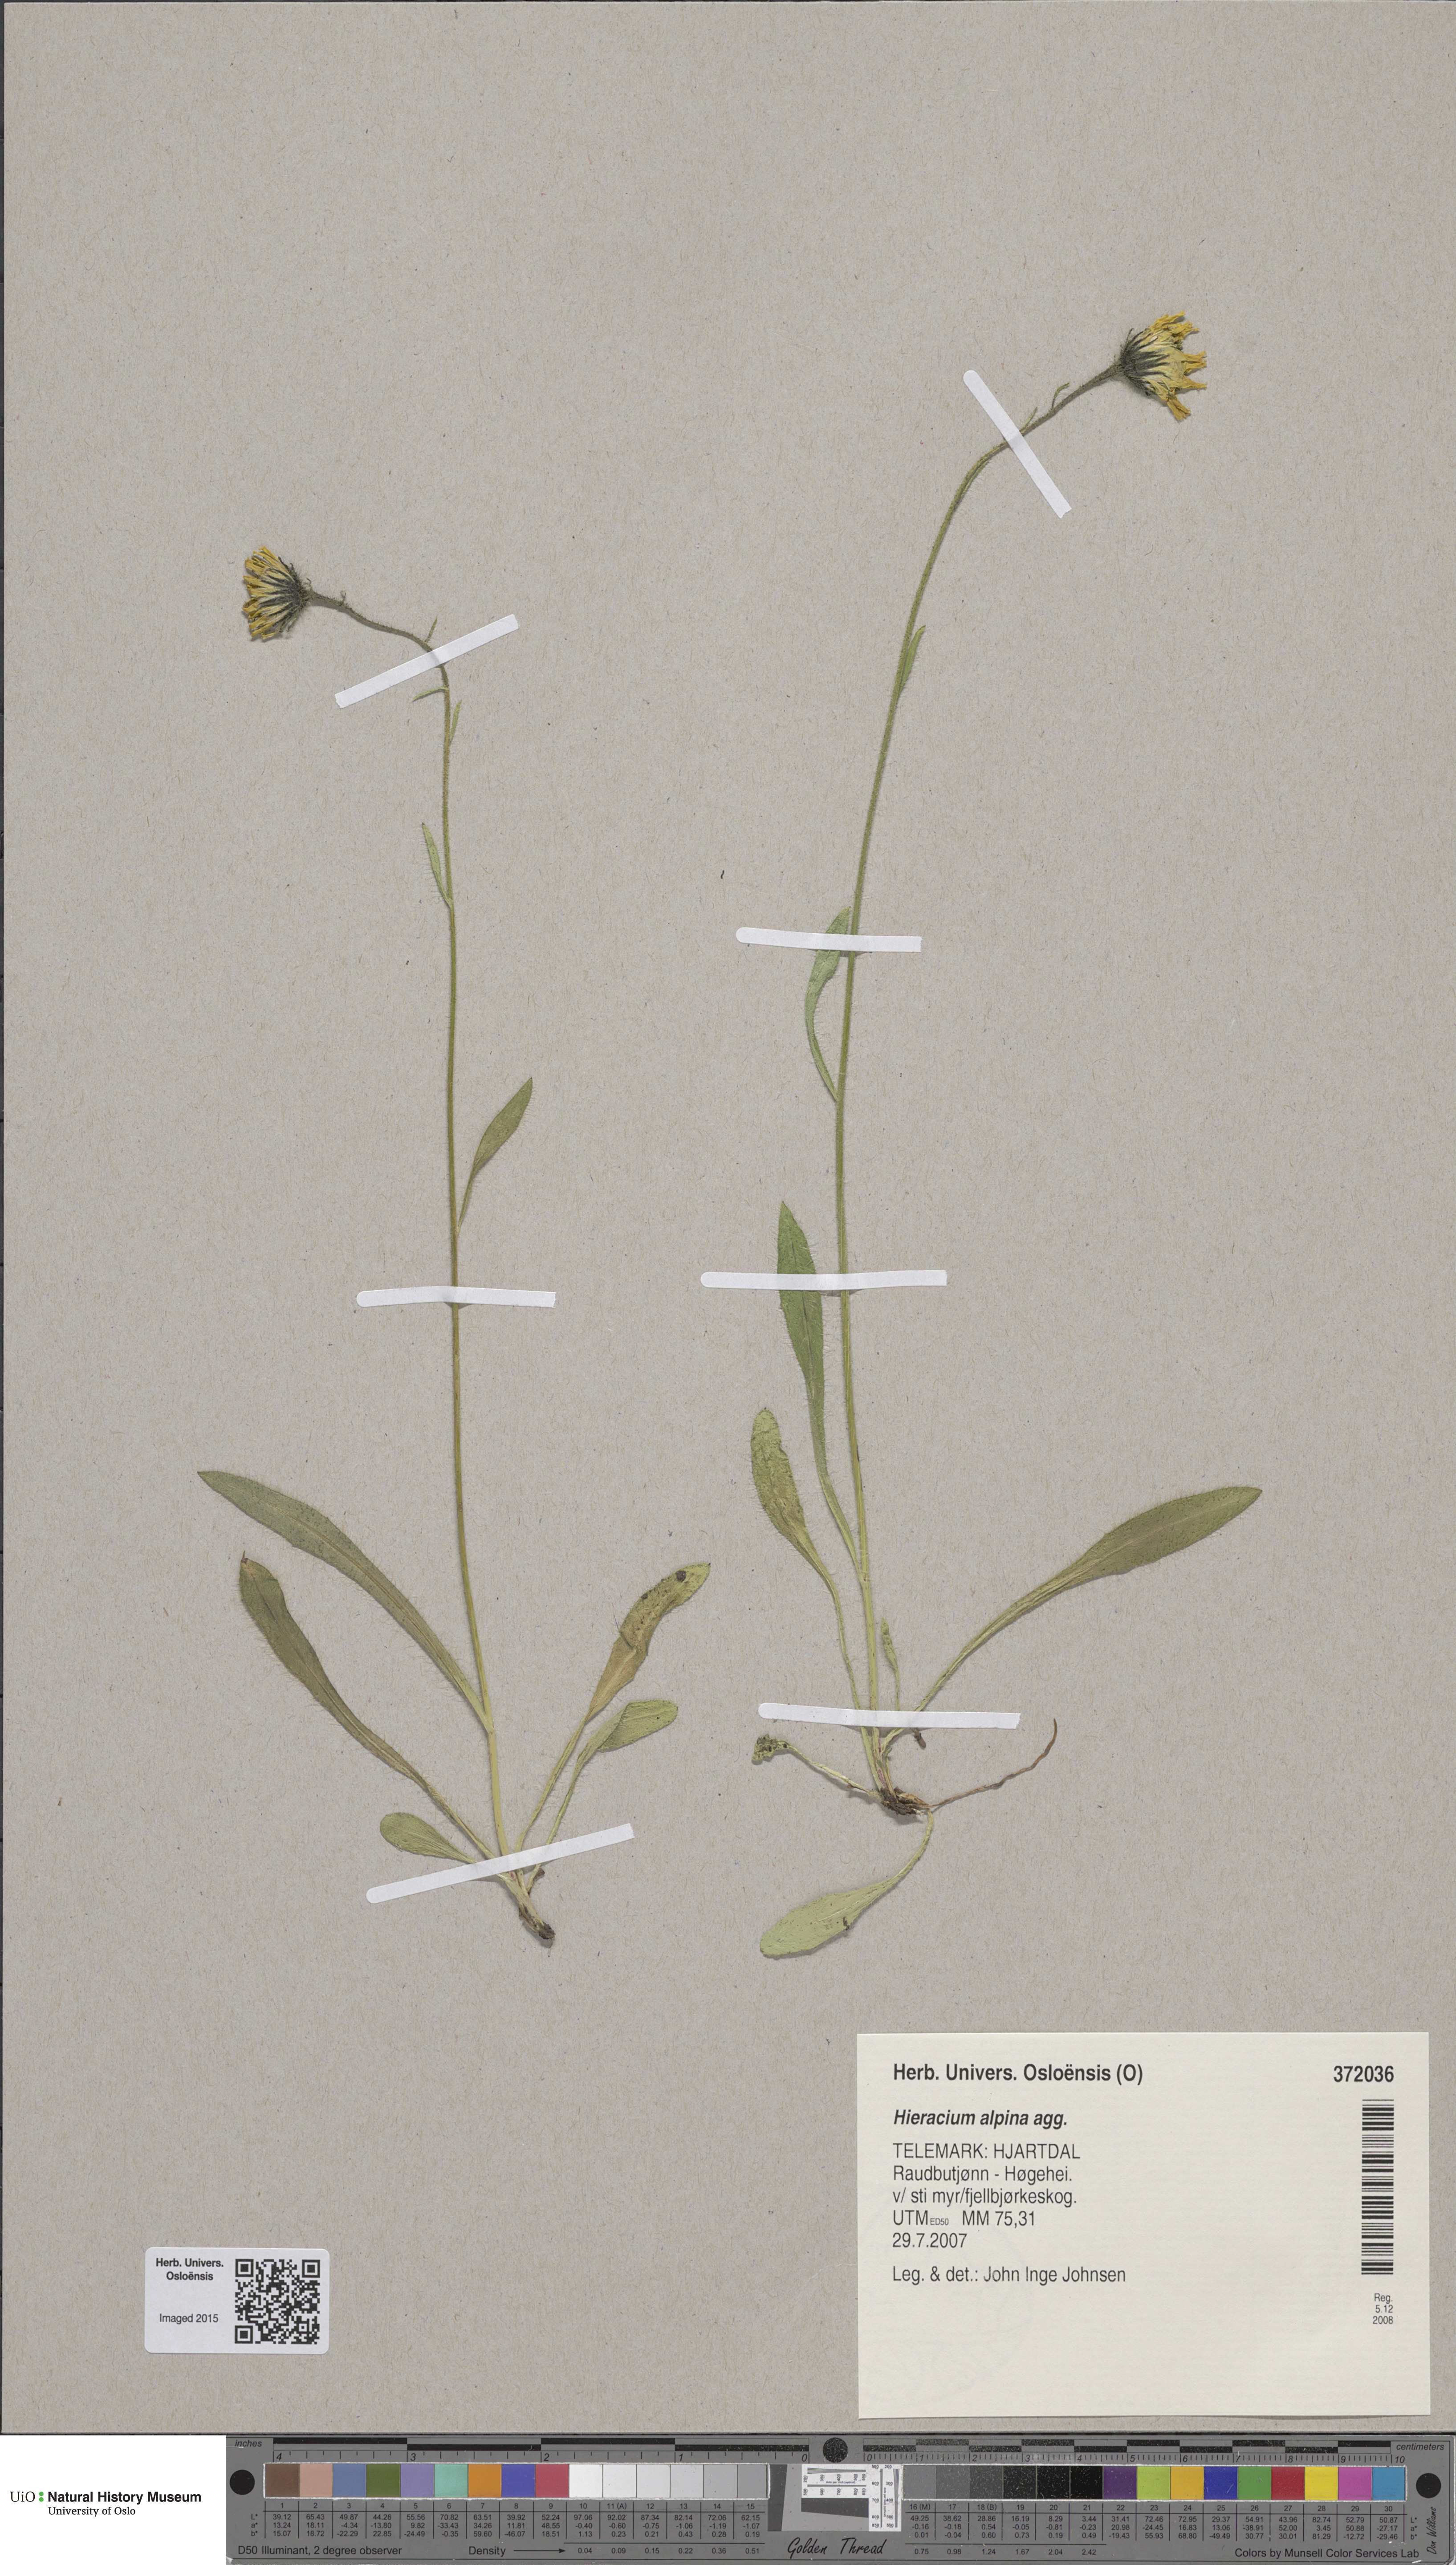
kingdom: Plantae
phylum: Tracheophyta
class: Magnoliopsida
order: Asterales
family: Asteraceae
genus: Hieracium
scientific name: Hieracium alpinum
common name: Alpine hawkweed
